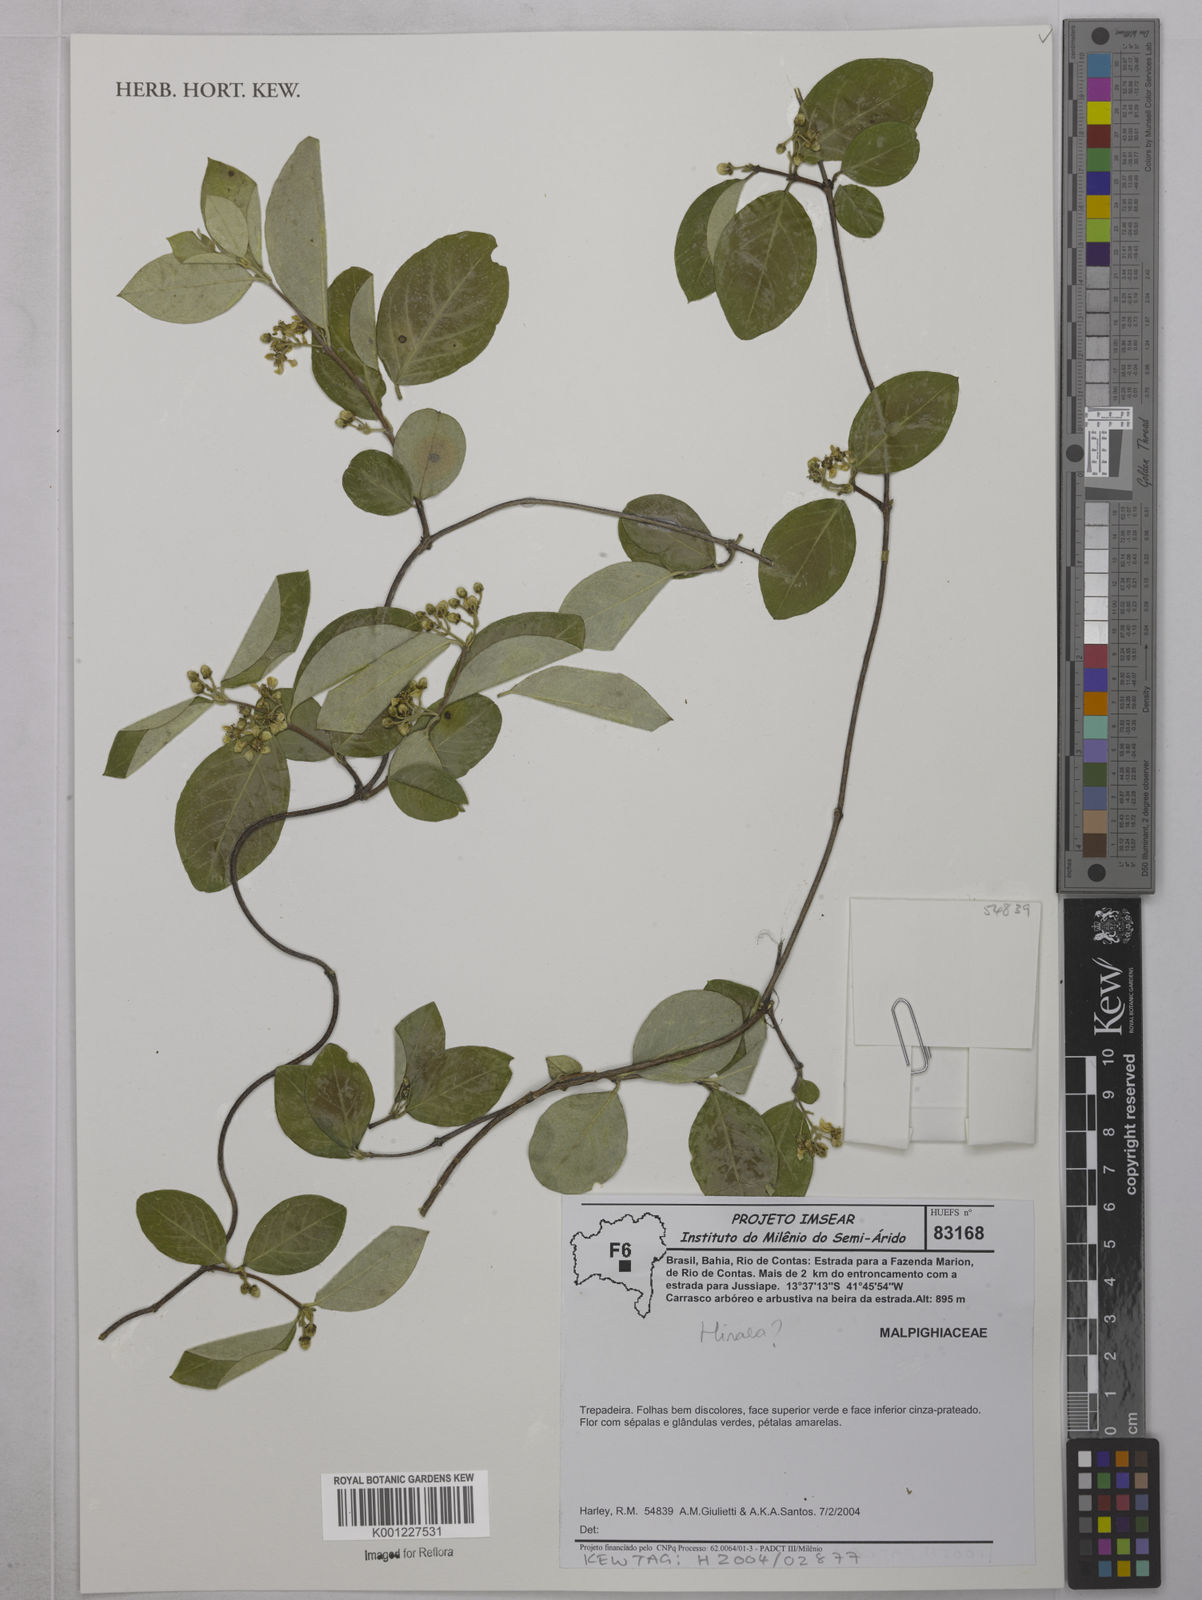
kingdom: Plantae
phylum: Tracheophyta
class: Magnoliopsida
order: Malpighiales
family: Malpighiaceae
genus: Hiraea
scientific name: Hiraea
